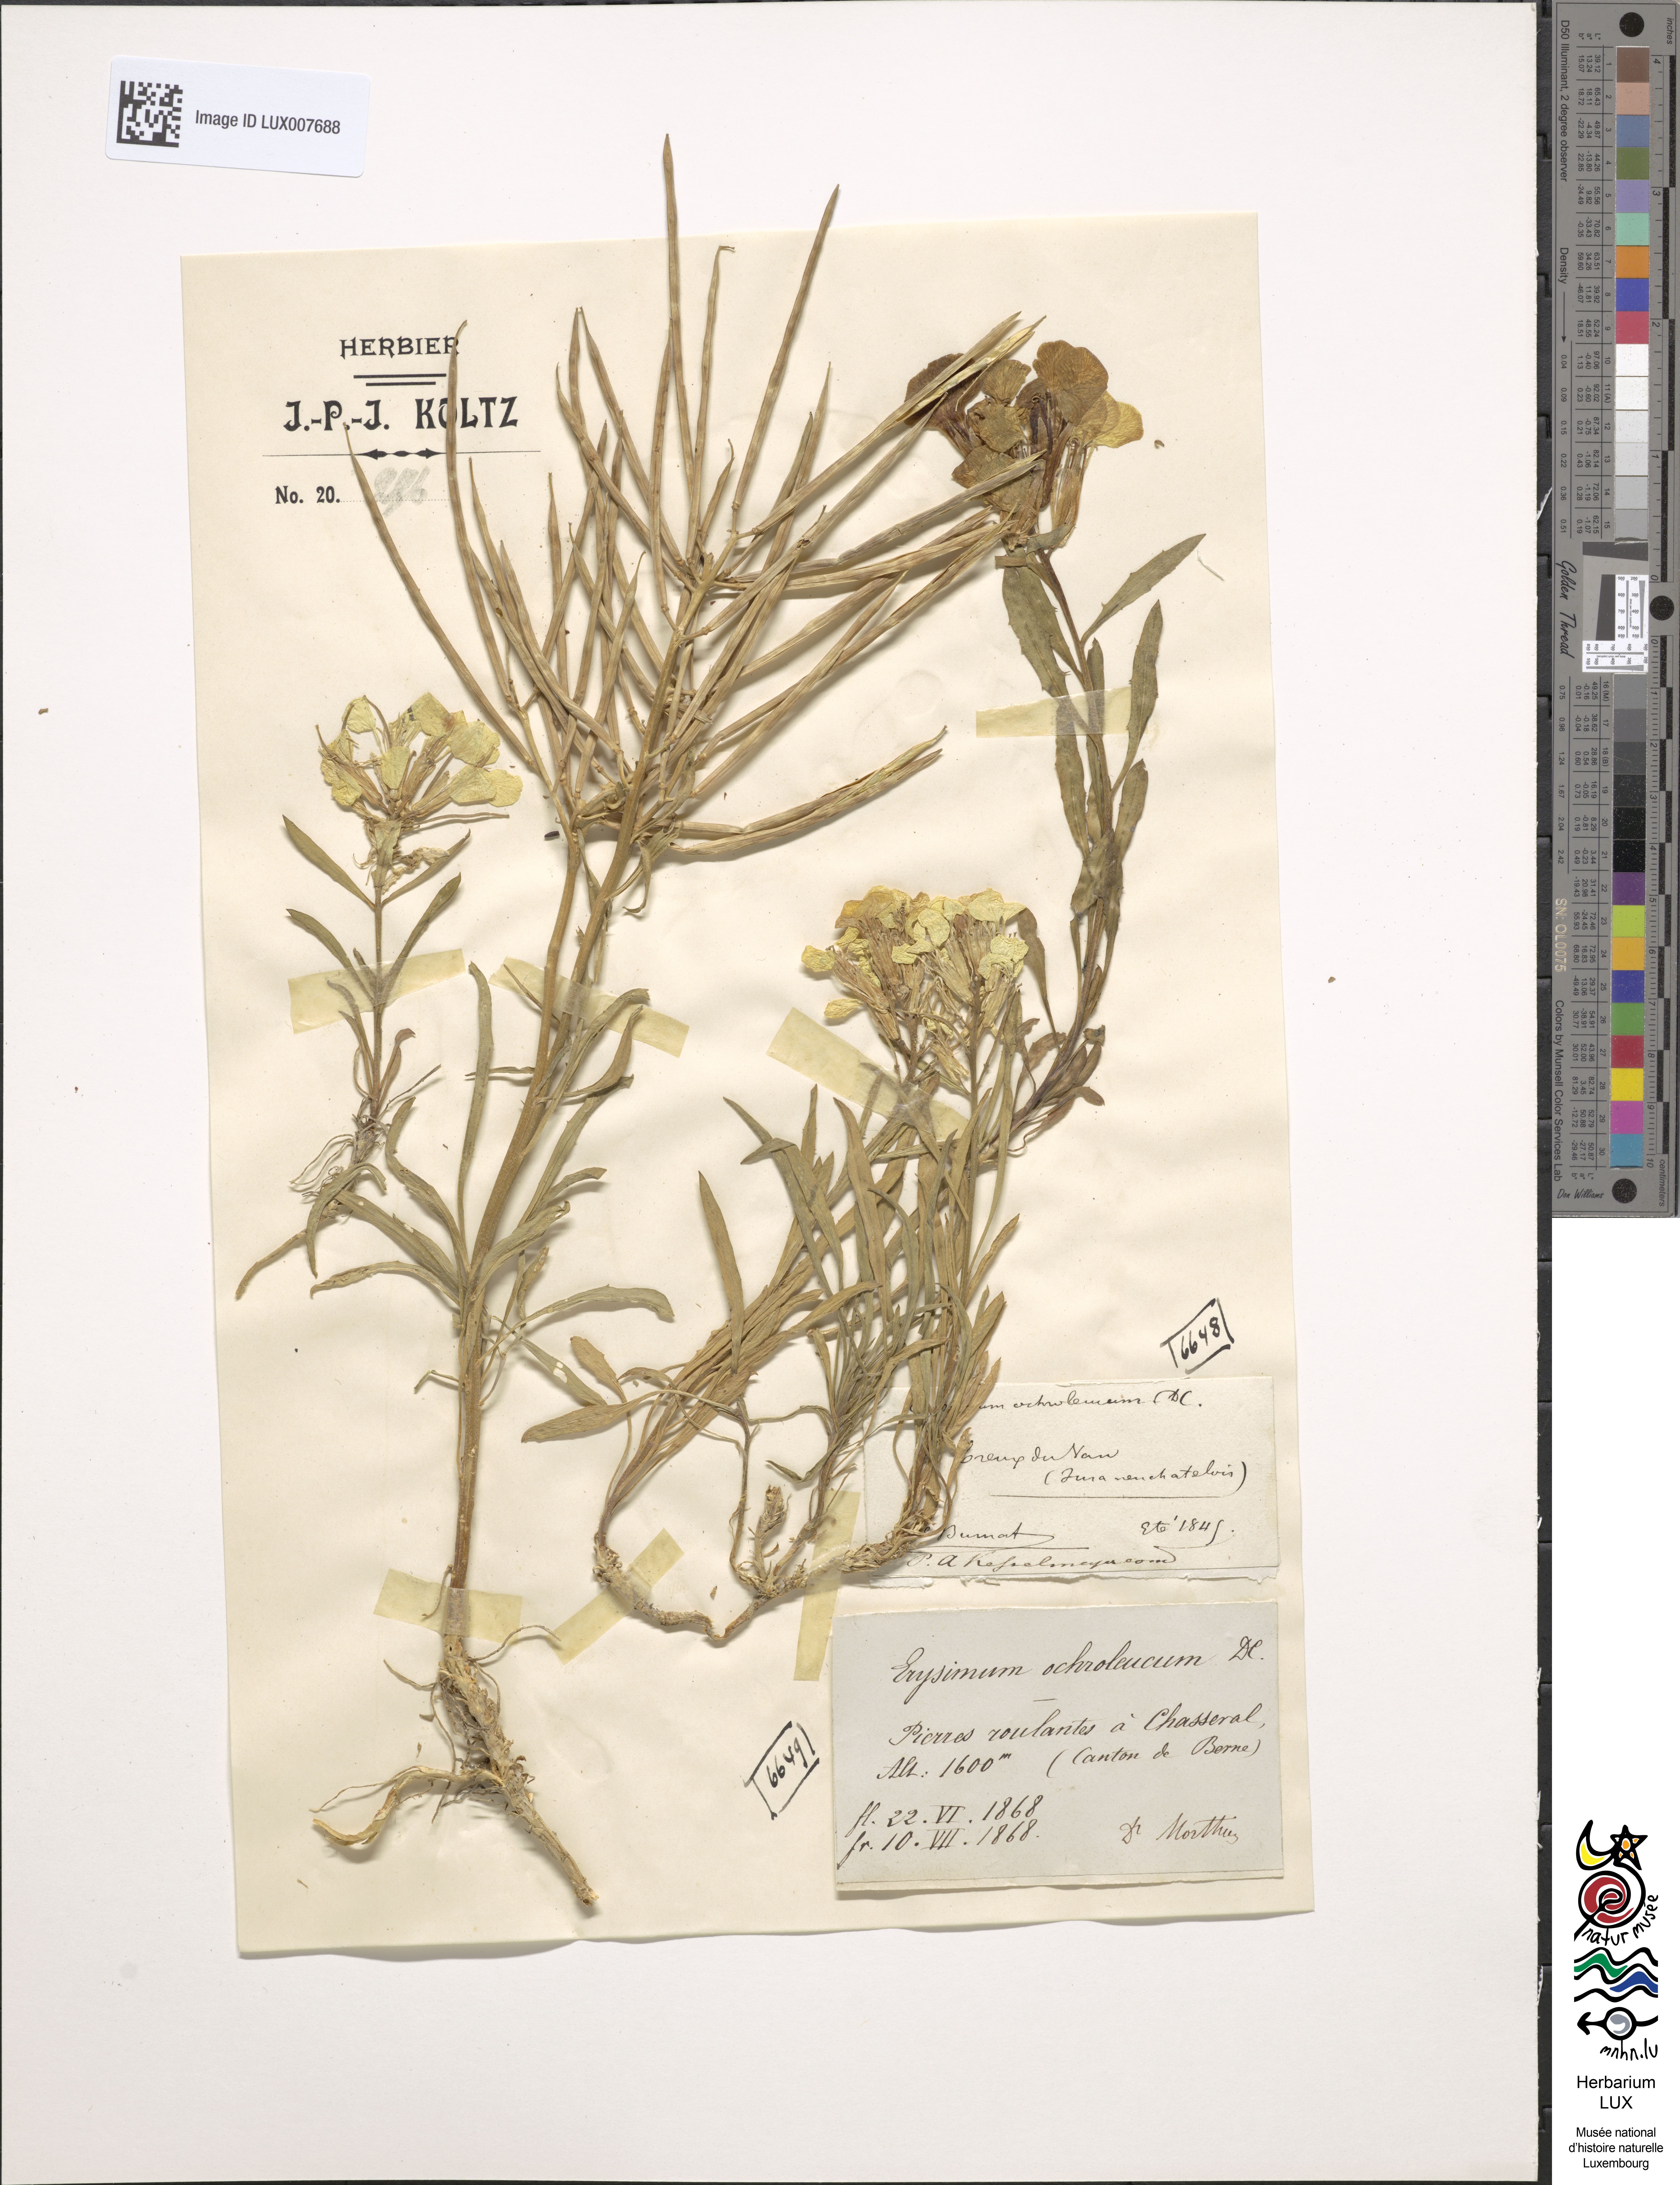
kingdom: Plantae
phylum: Tracheophyta
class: Magnoliopsida
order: Brassicales
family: Brassicaceae
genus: Erysimum
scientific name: Erysimum humile
